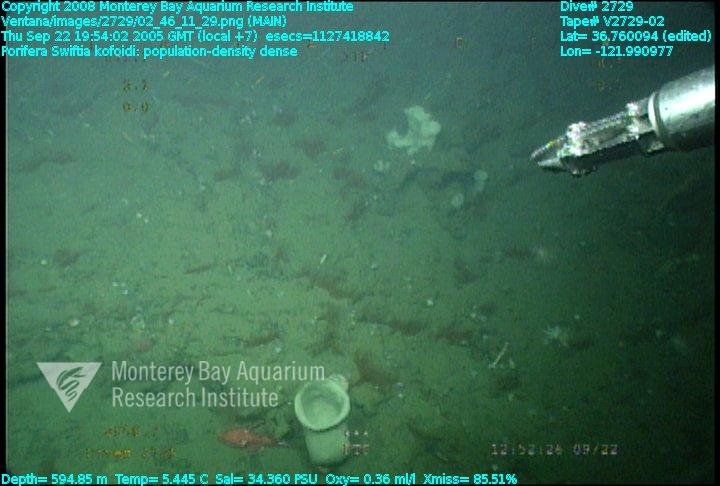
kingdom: Animalia
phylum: Porifera
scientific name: Porifera
